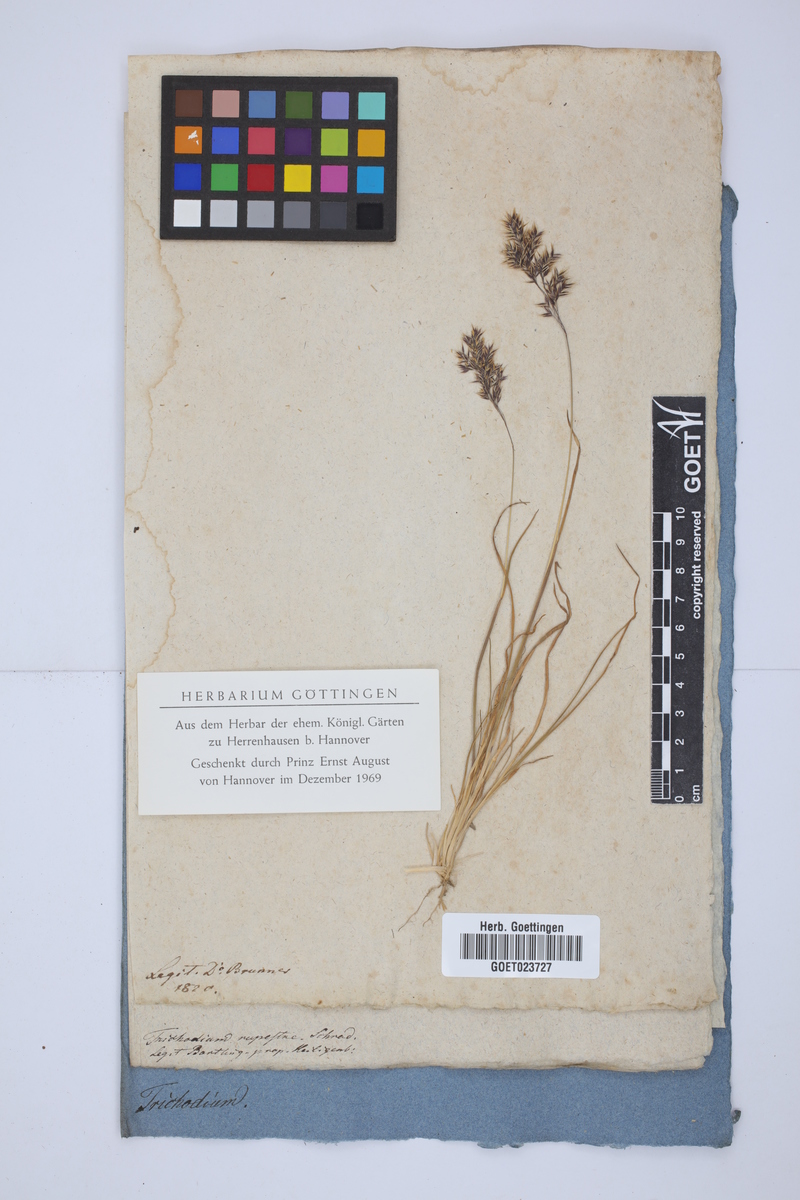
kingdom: Plantae
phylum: Tracheophyta
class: Liliopsida
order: Poales
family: Poaceae
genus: Alpagrostis
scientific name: Alpagrostis alpina
